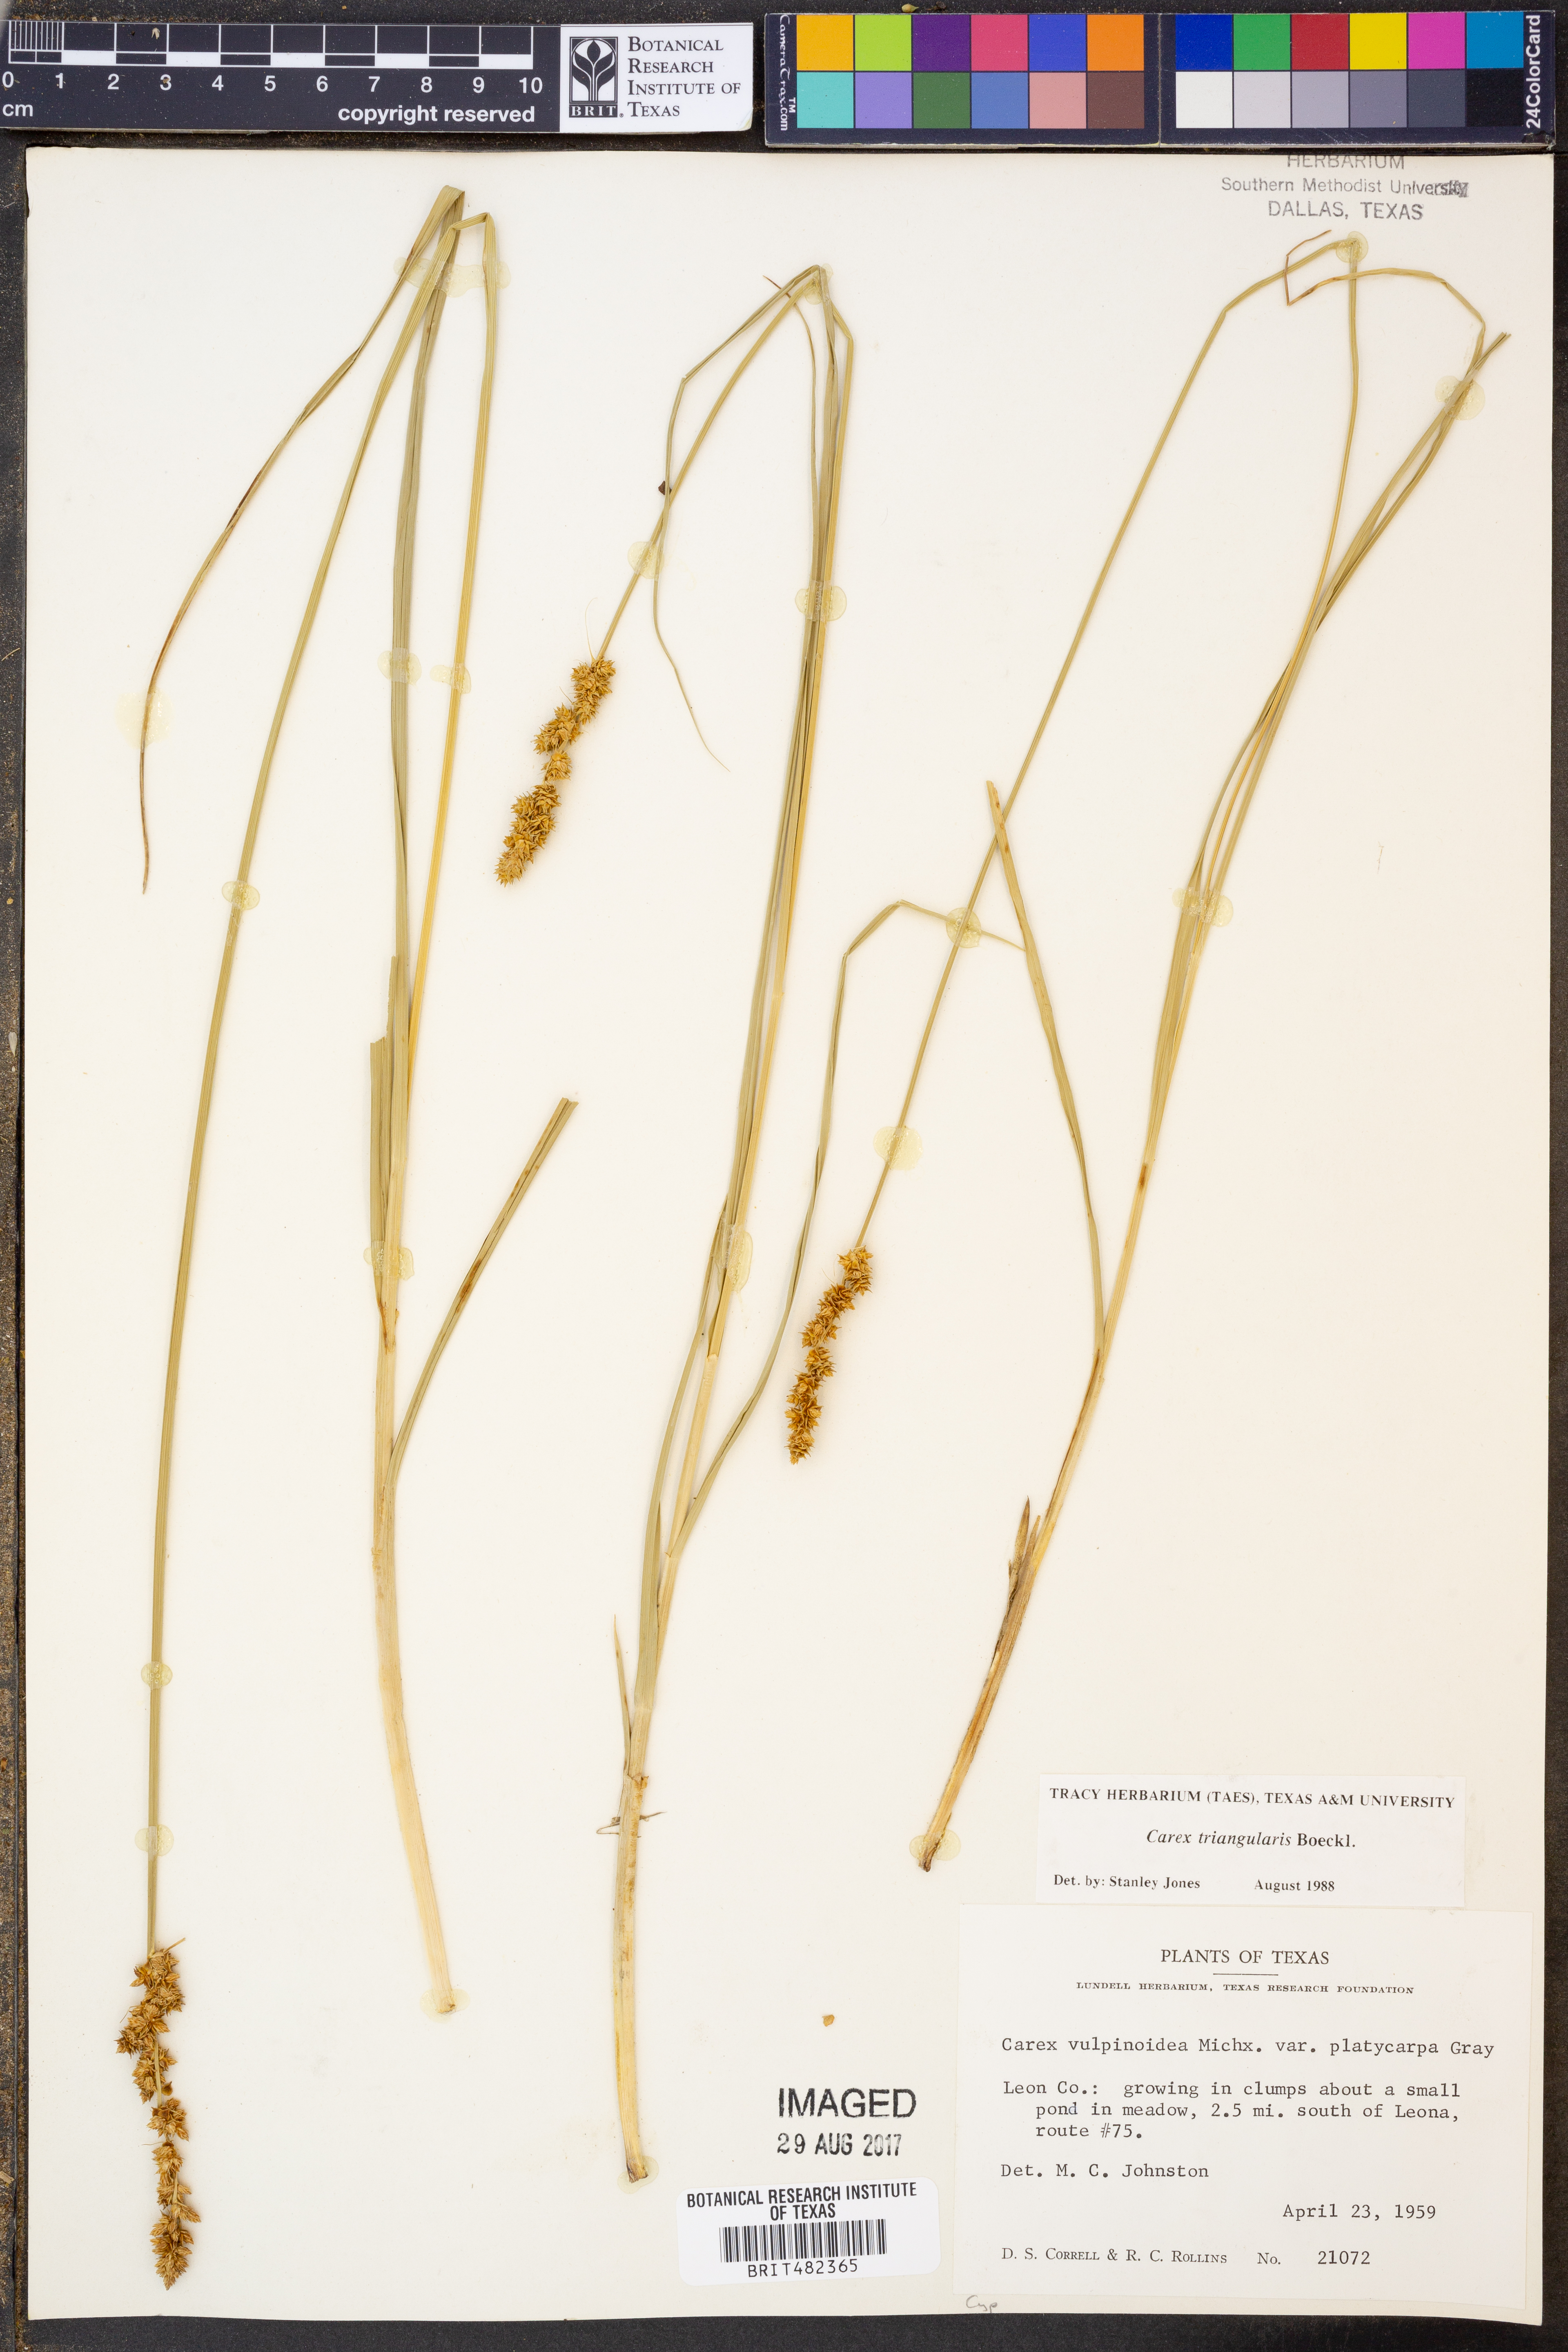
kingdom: Plantae
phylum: Tracheophyta
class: Liliopsida
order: Poales
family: Cyperaceae
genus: Carex
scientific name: Carex triangularis
